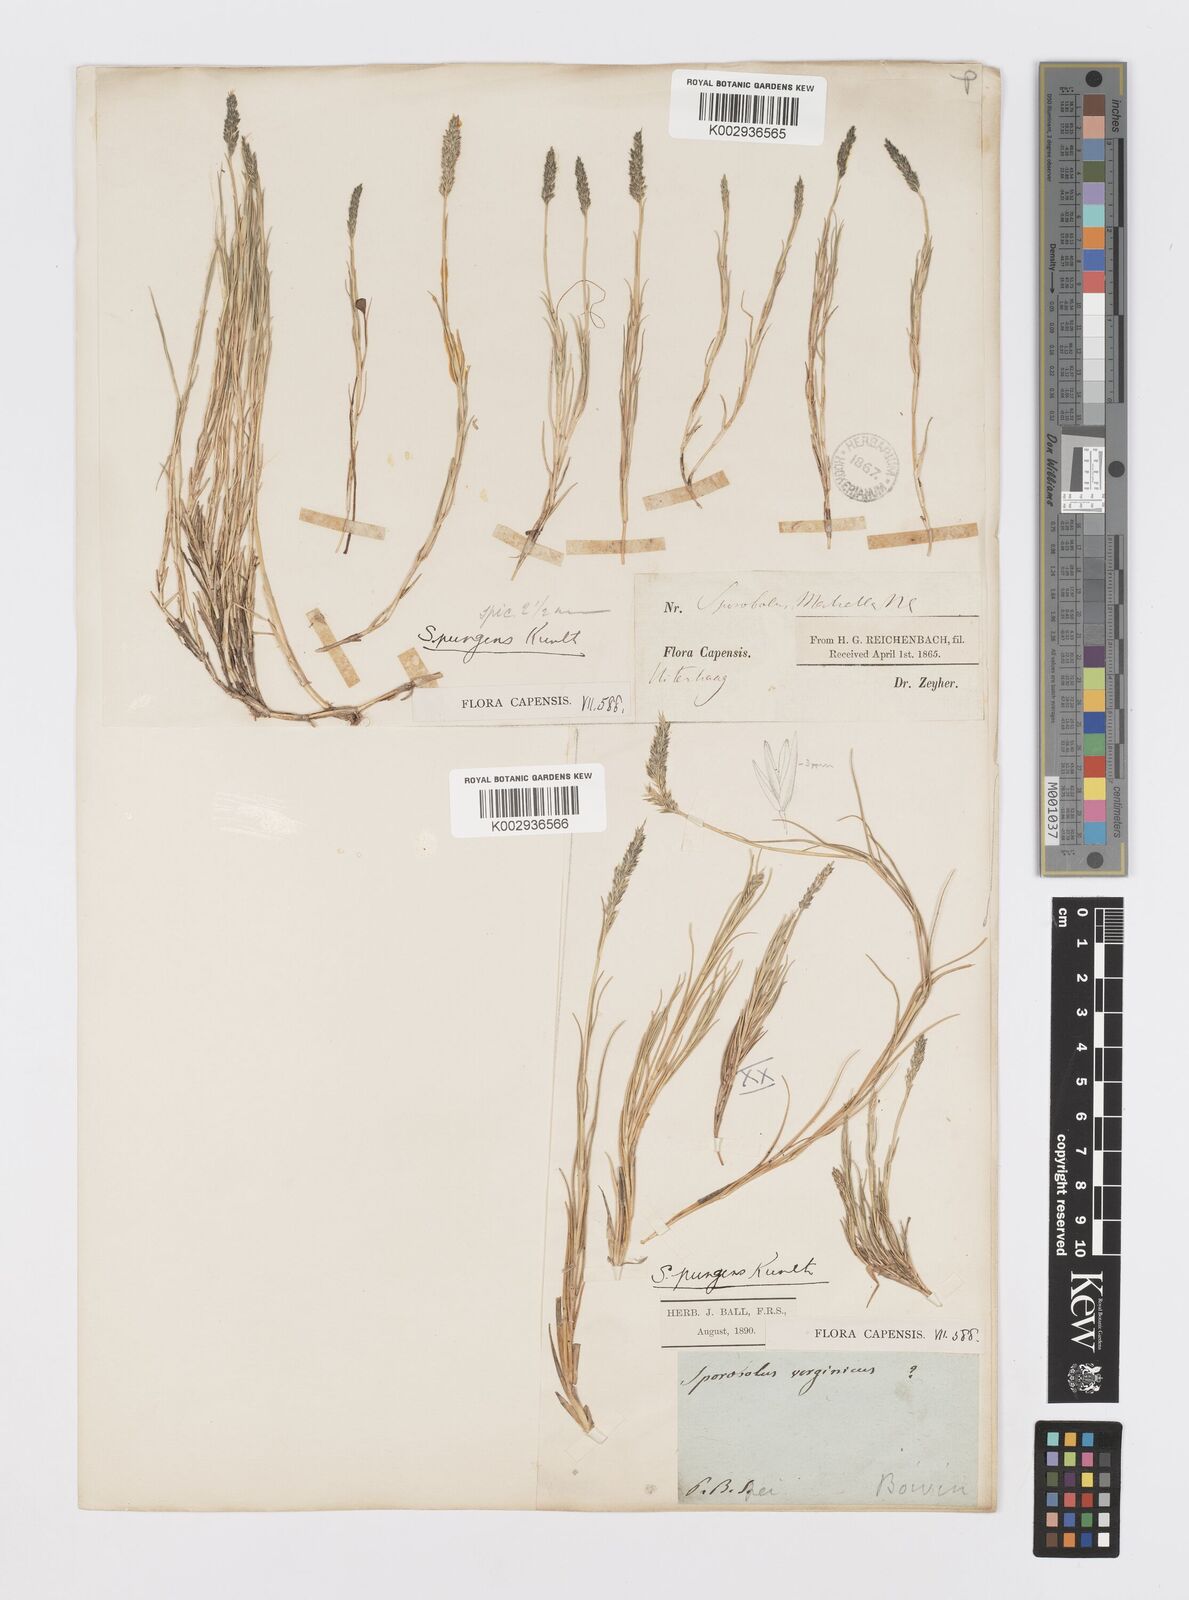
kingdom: Plantae
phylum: Tracheophyta
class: Liliopsida
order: Poales
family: Poaceae
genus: Sporobolus
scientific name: Sporobolus virginicus
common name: Beach dropseed
